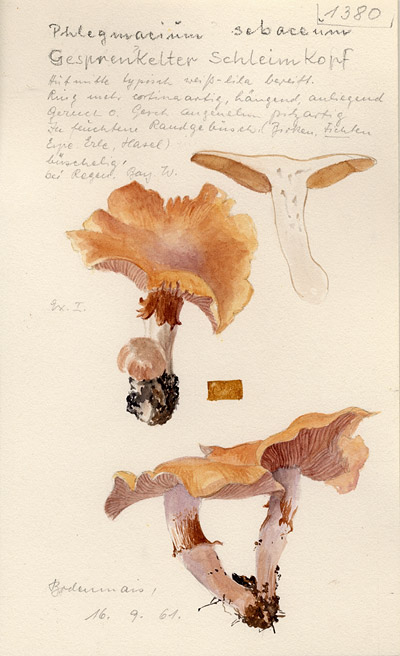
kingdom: Fungi
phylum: Basidiomycota
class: Agaricomycetes
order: Agaricales
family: Cortinariaceae
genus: Cortinarius
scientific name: Cortinarius sebaceus
